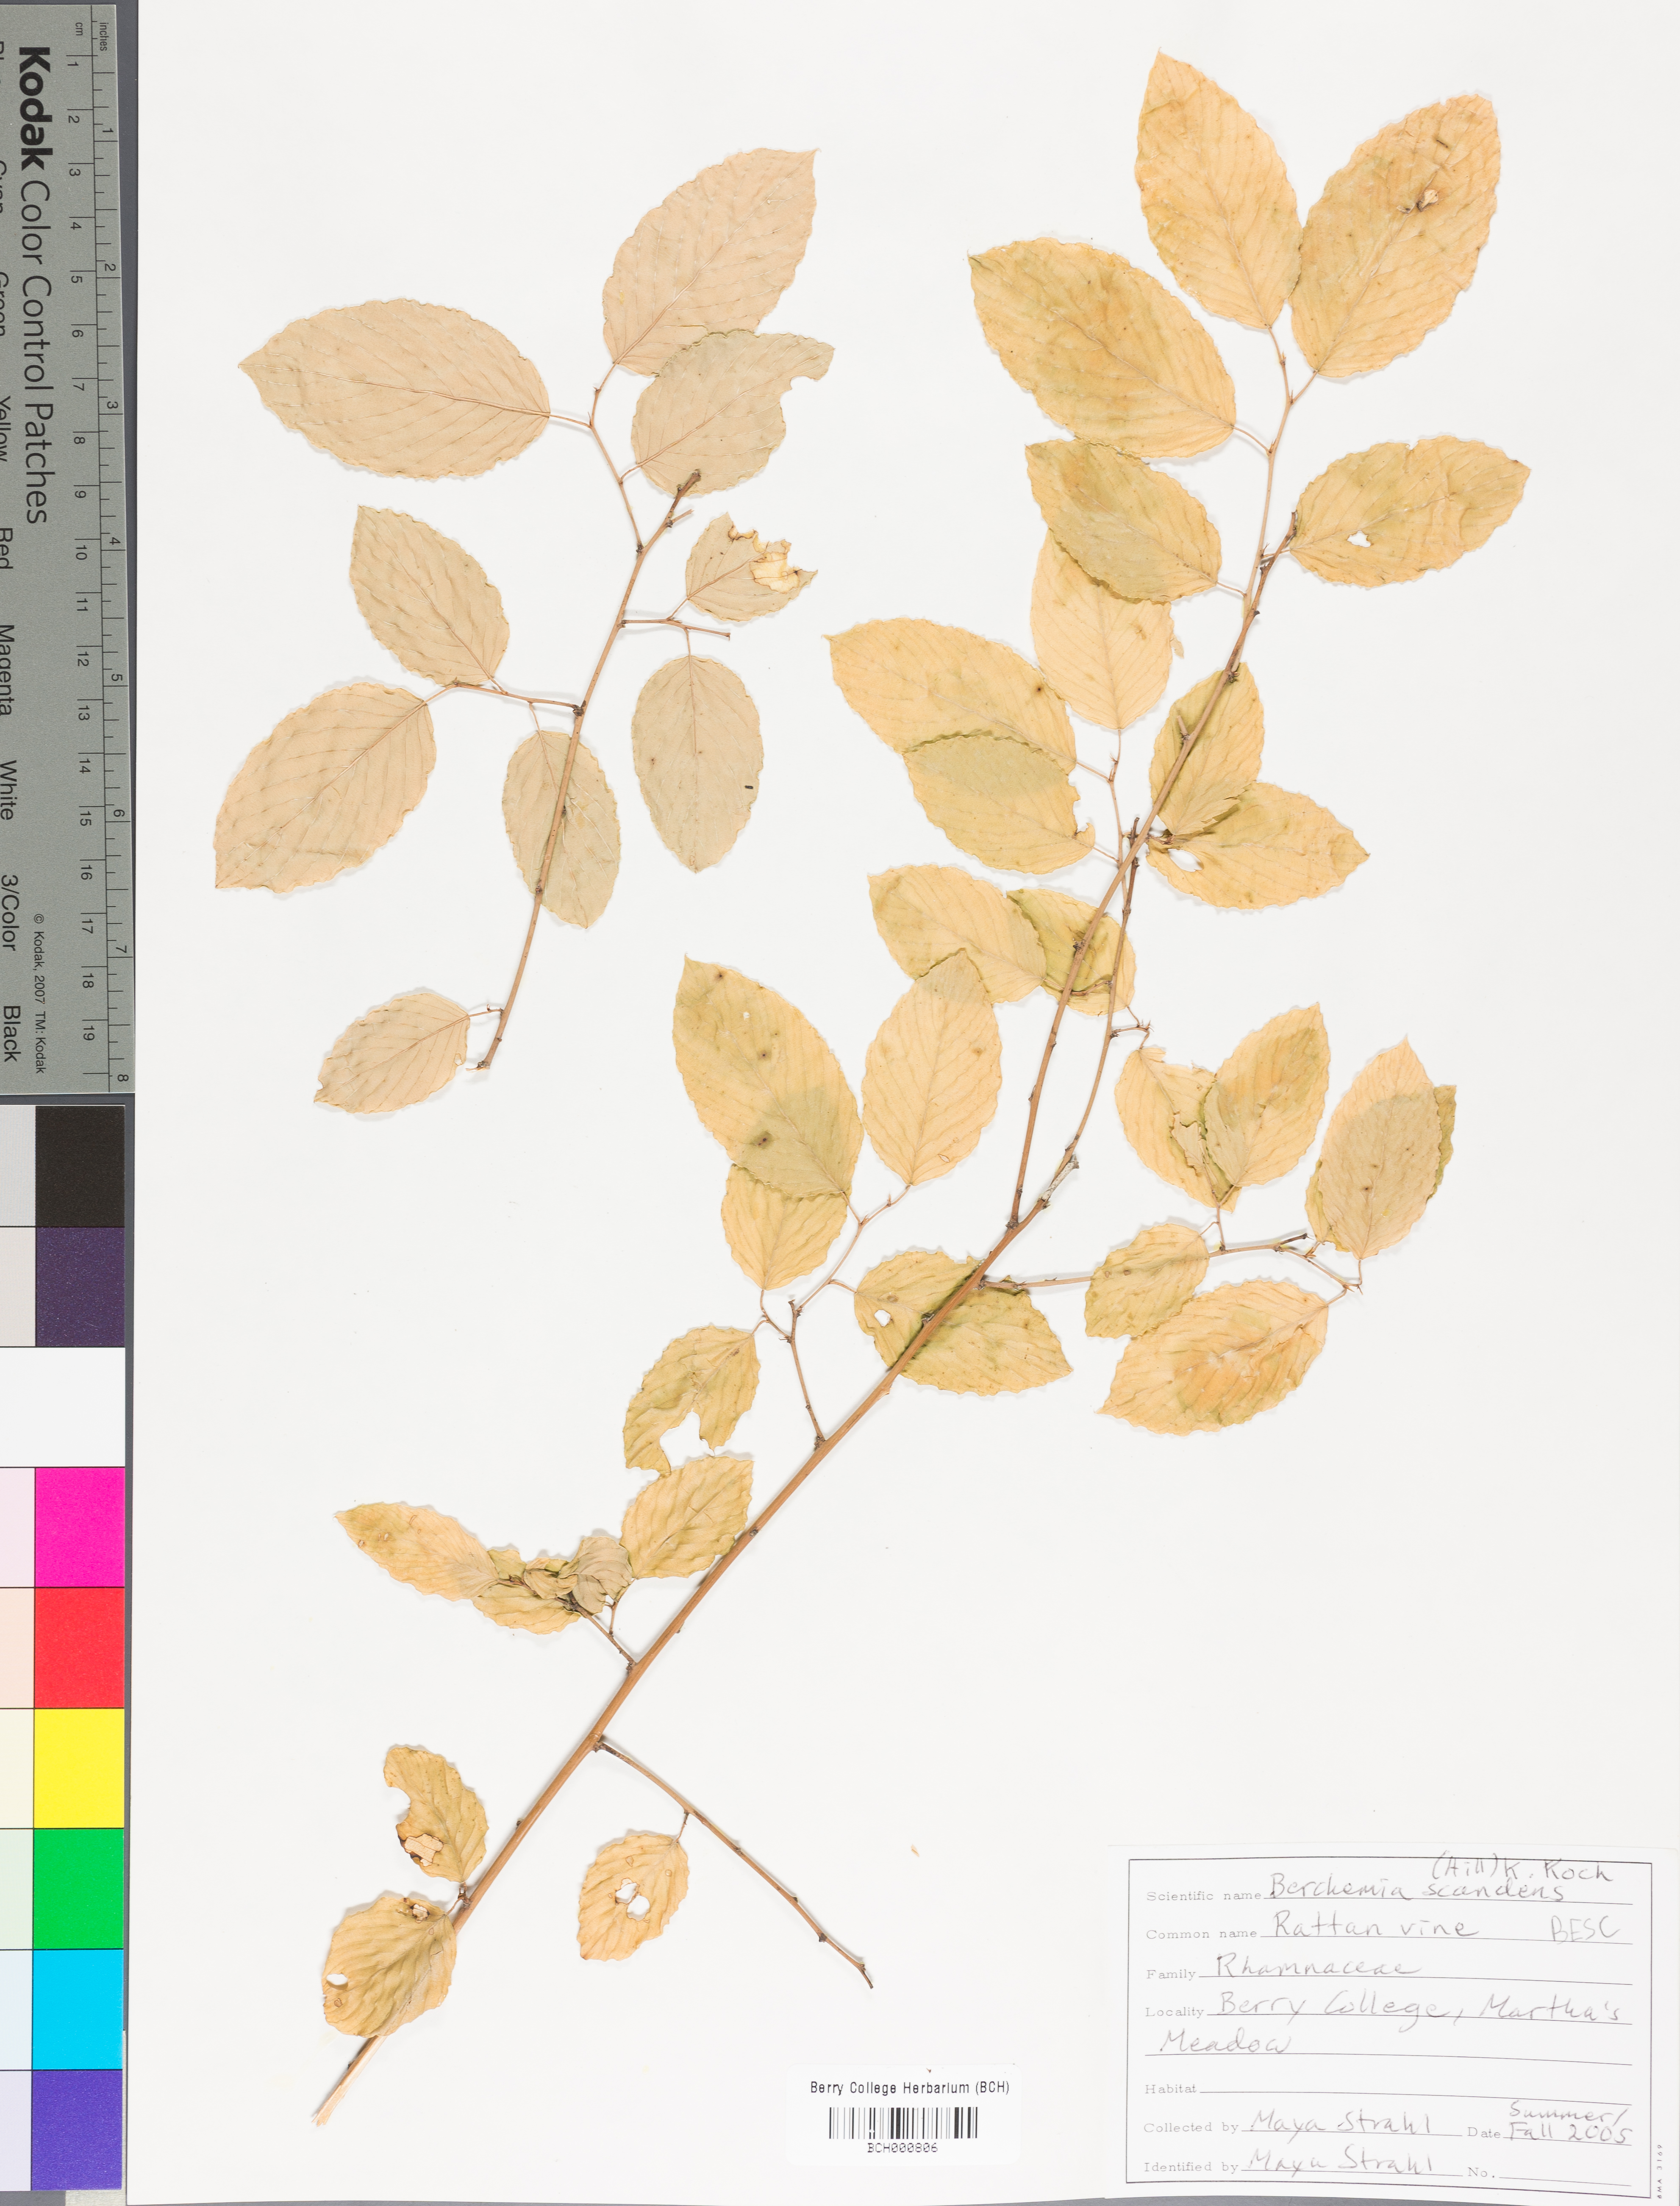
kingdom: Plantae
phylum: Tracheophyta
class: Magnoliopsida
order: Rosales
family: Rhamnaceae
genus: Berchemia
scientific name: Berchemia scandens
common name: Supplejack
